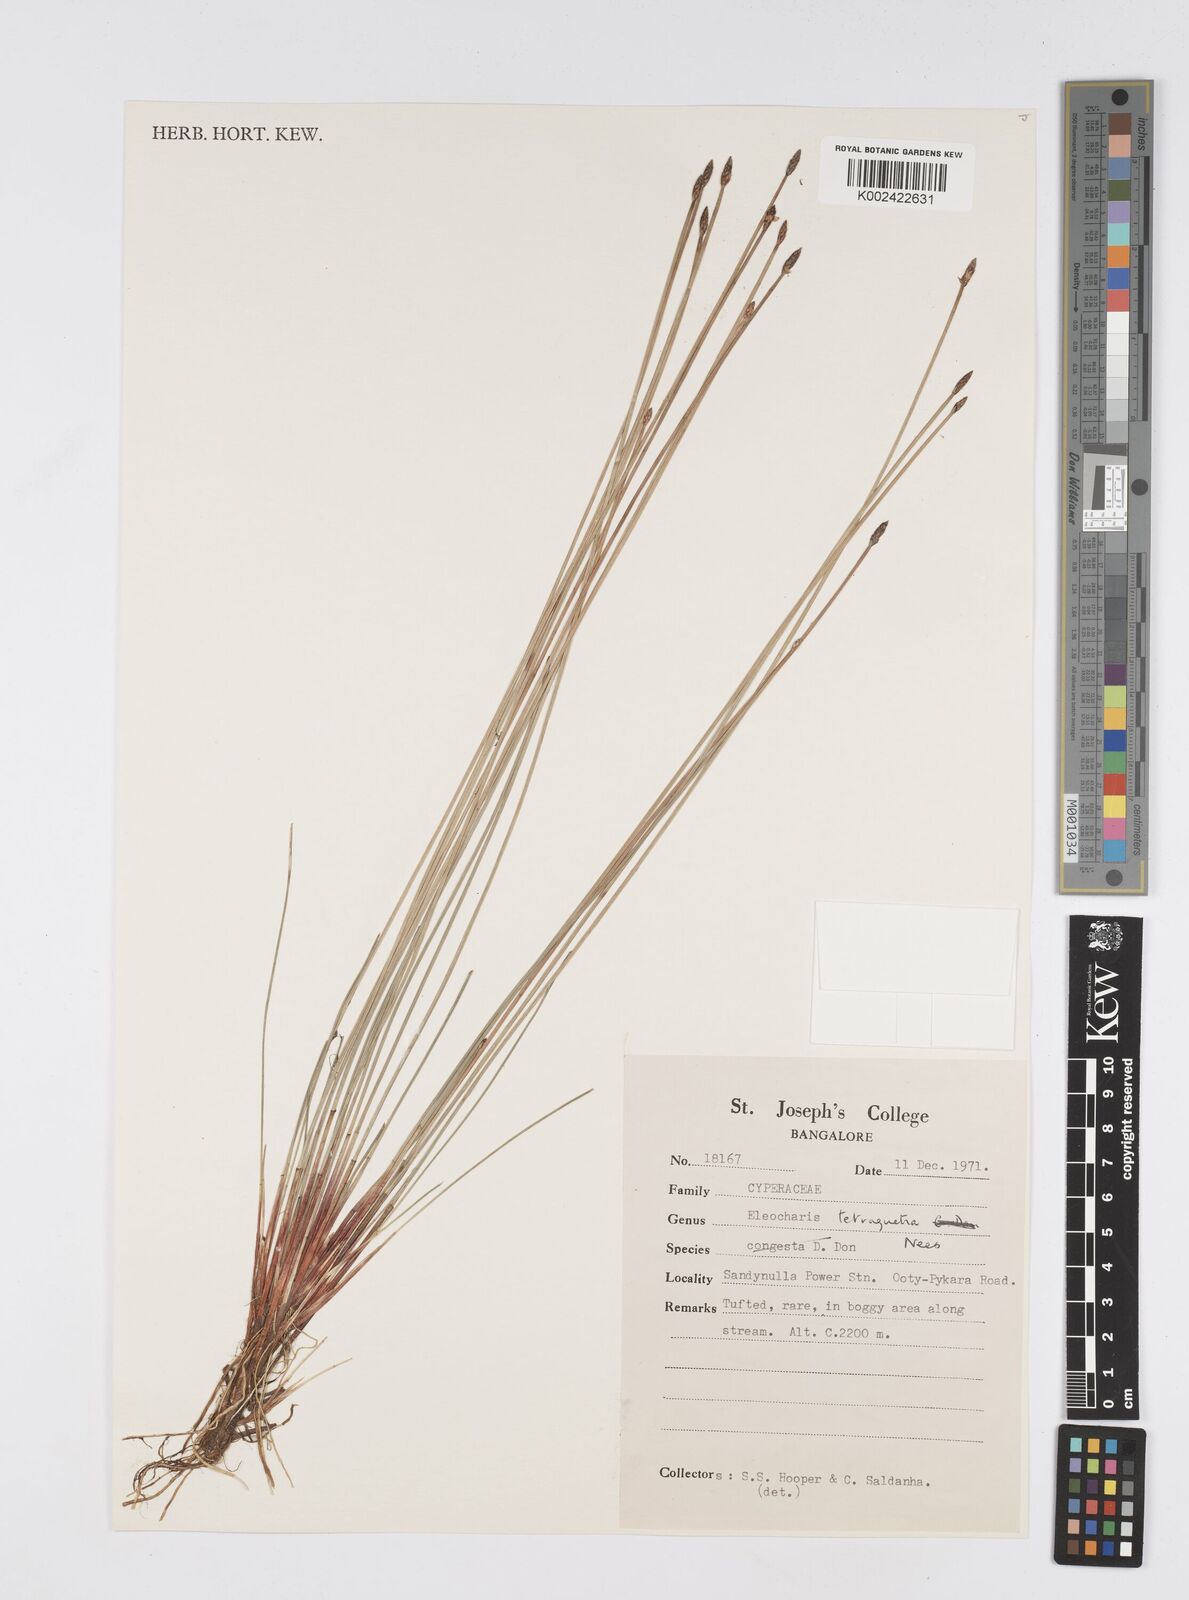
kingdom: Plantae
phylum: Tracheophyta
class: Liliopsida
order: Poales
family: Cyperaceae
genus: Eleocharis
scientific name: Eleocharis tetraquetra
